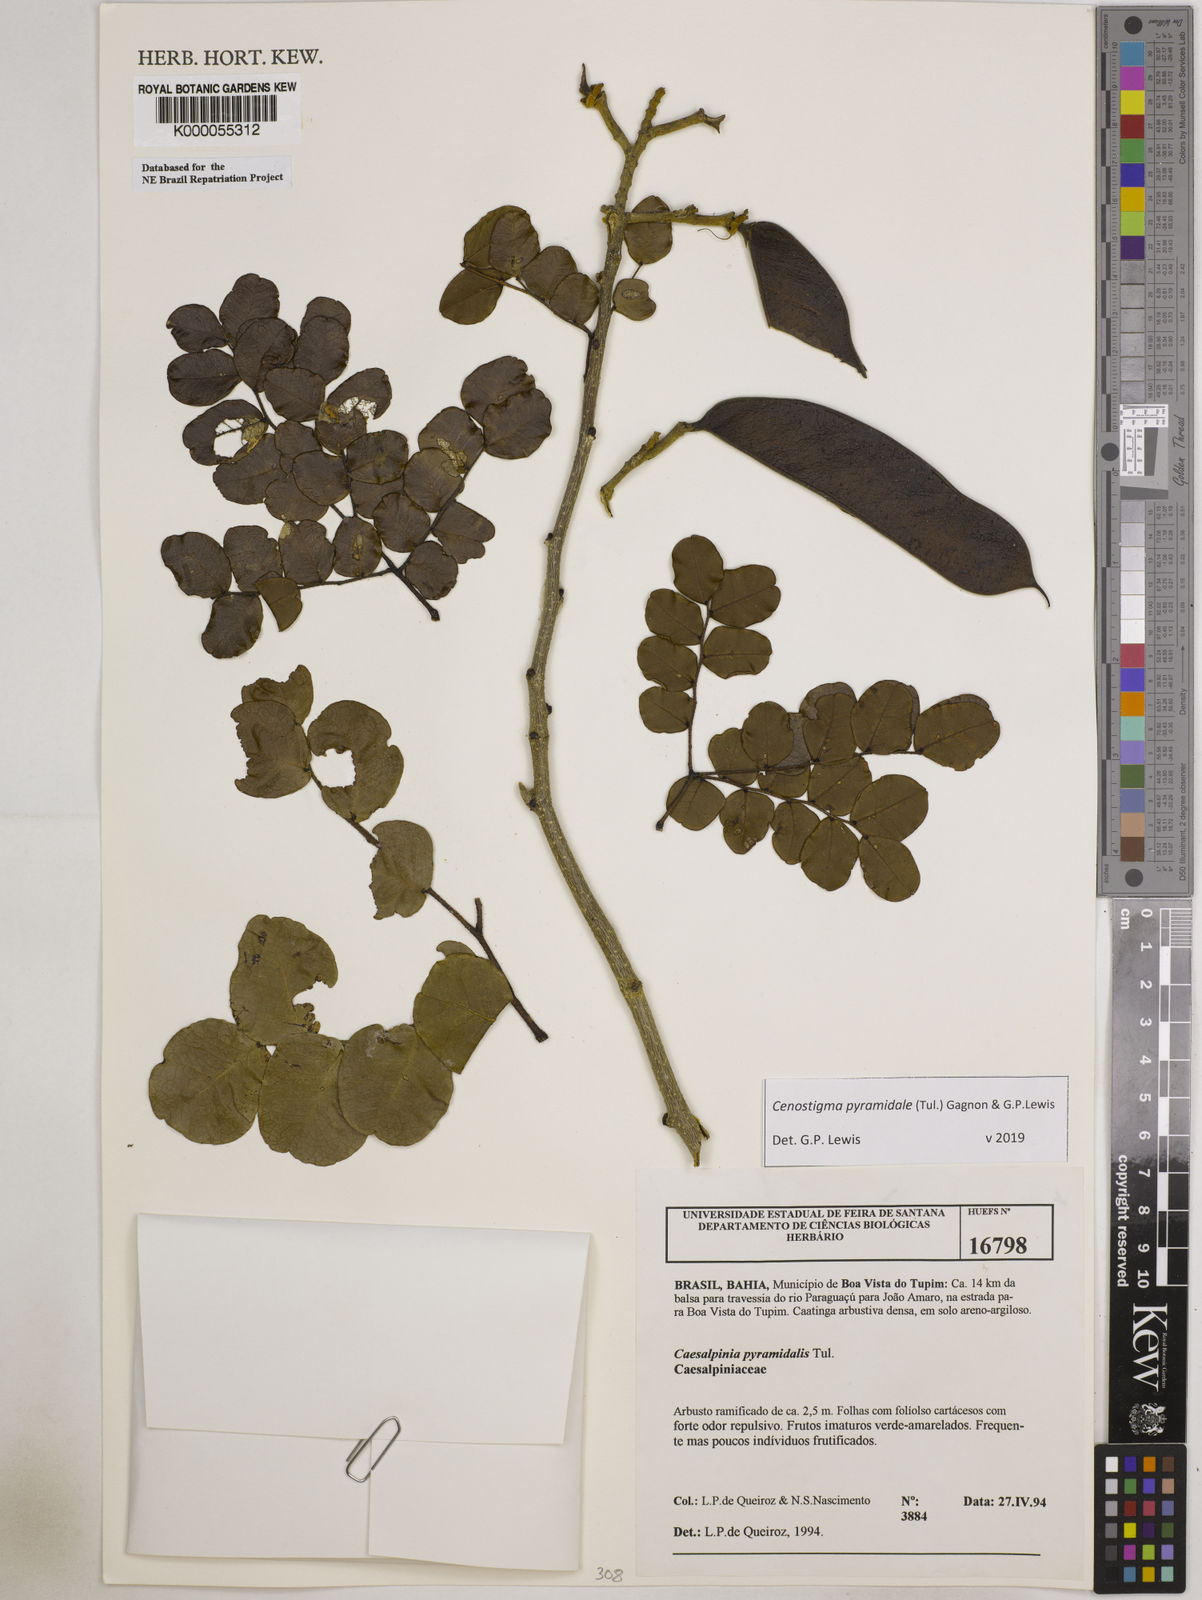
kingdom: Plantae
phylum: Tracheophyta
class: Magnoliopsida
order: Fabales
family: Fabaceae
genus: Cenostigma
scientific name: Cenostigma pyramidale
